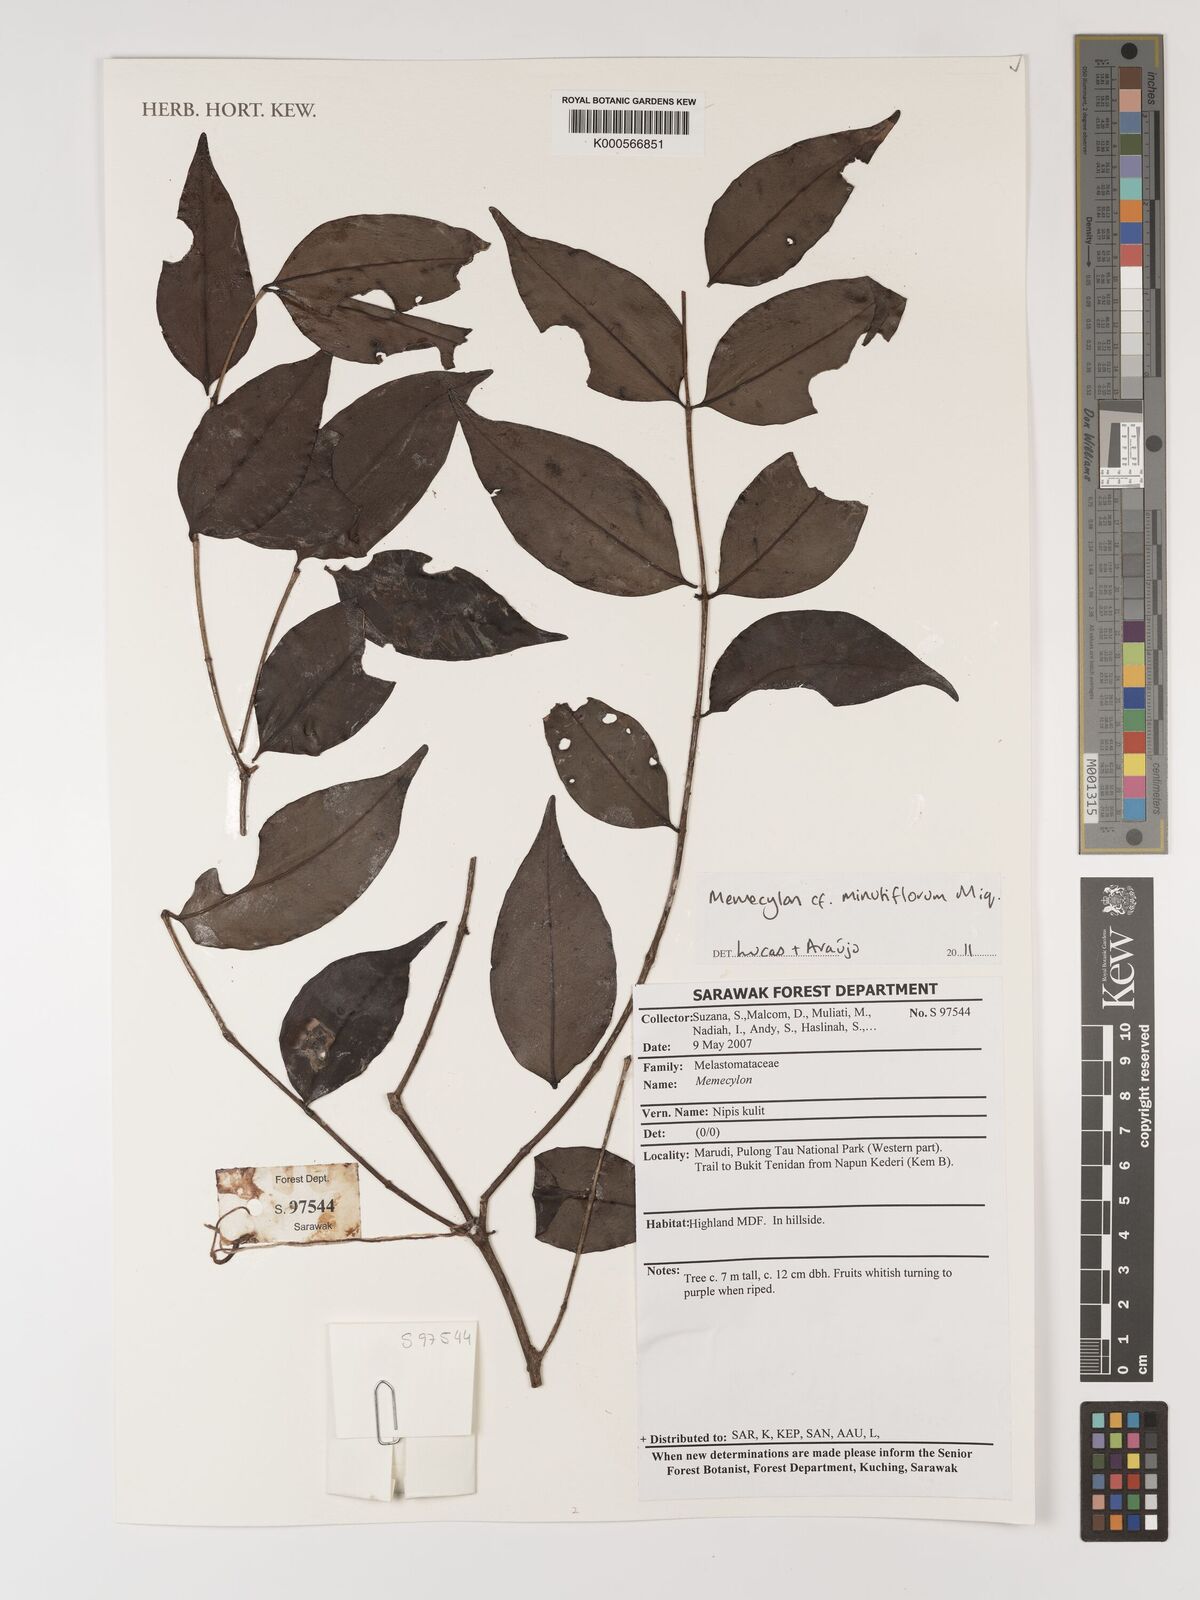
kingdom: Plantae
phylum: Tracheophyta
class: Magnoliopsida
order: Myrtales
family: Melastomataceae
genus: Memecylon
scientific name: Memecylon minutiflorum
